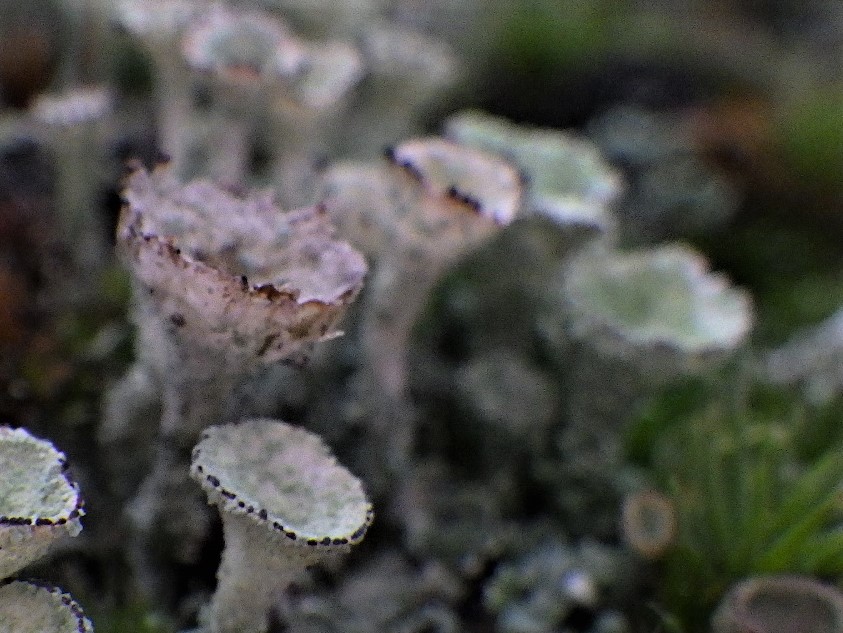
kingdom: Fungi
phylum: Ascomycota
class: Lecanoromycetes
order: Lecanorales
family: Cladoniaceae
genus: Cladonia
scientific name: Cladonia
